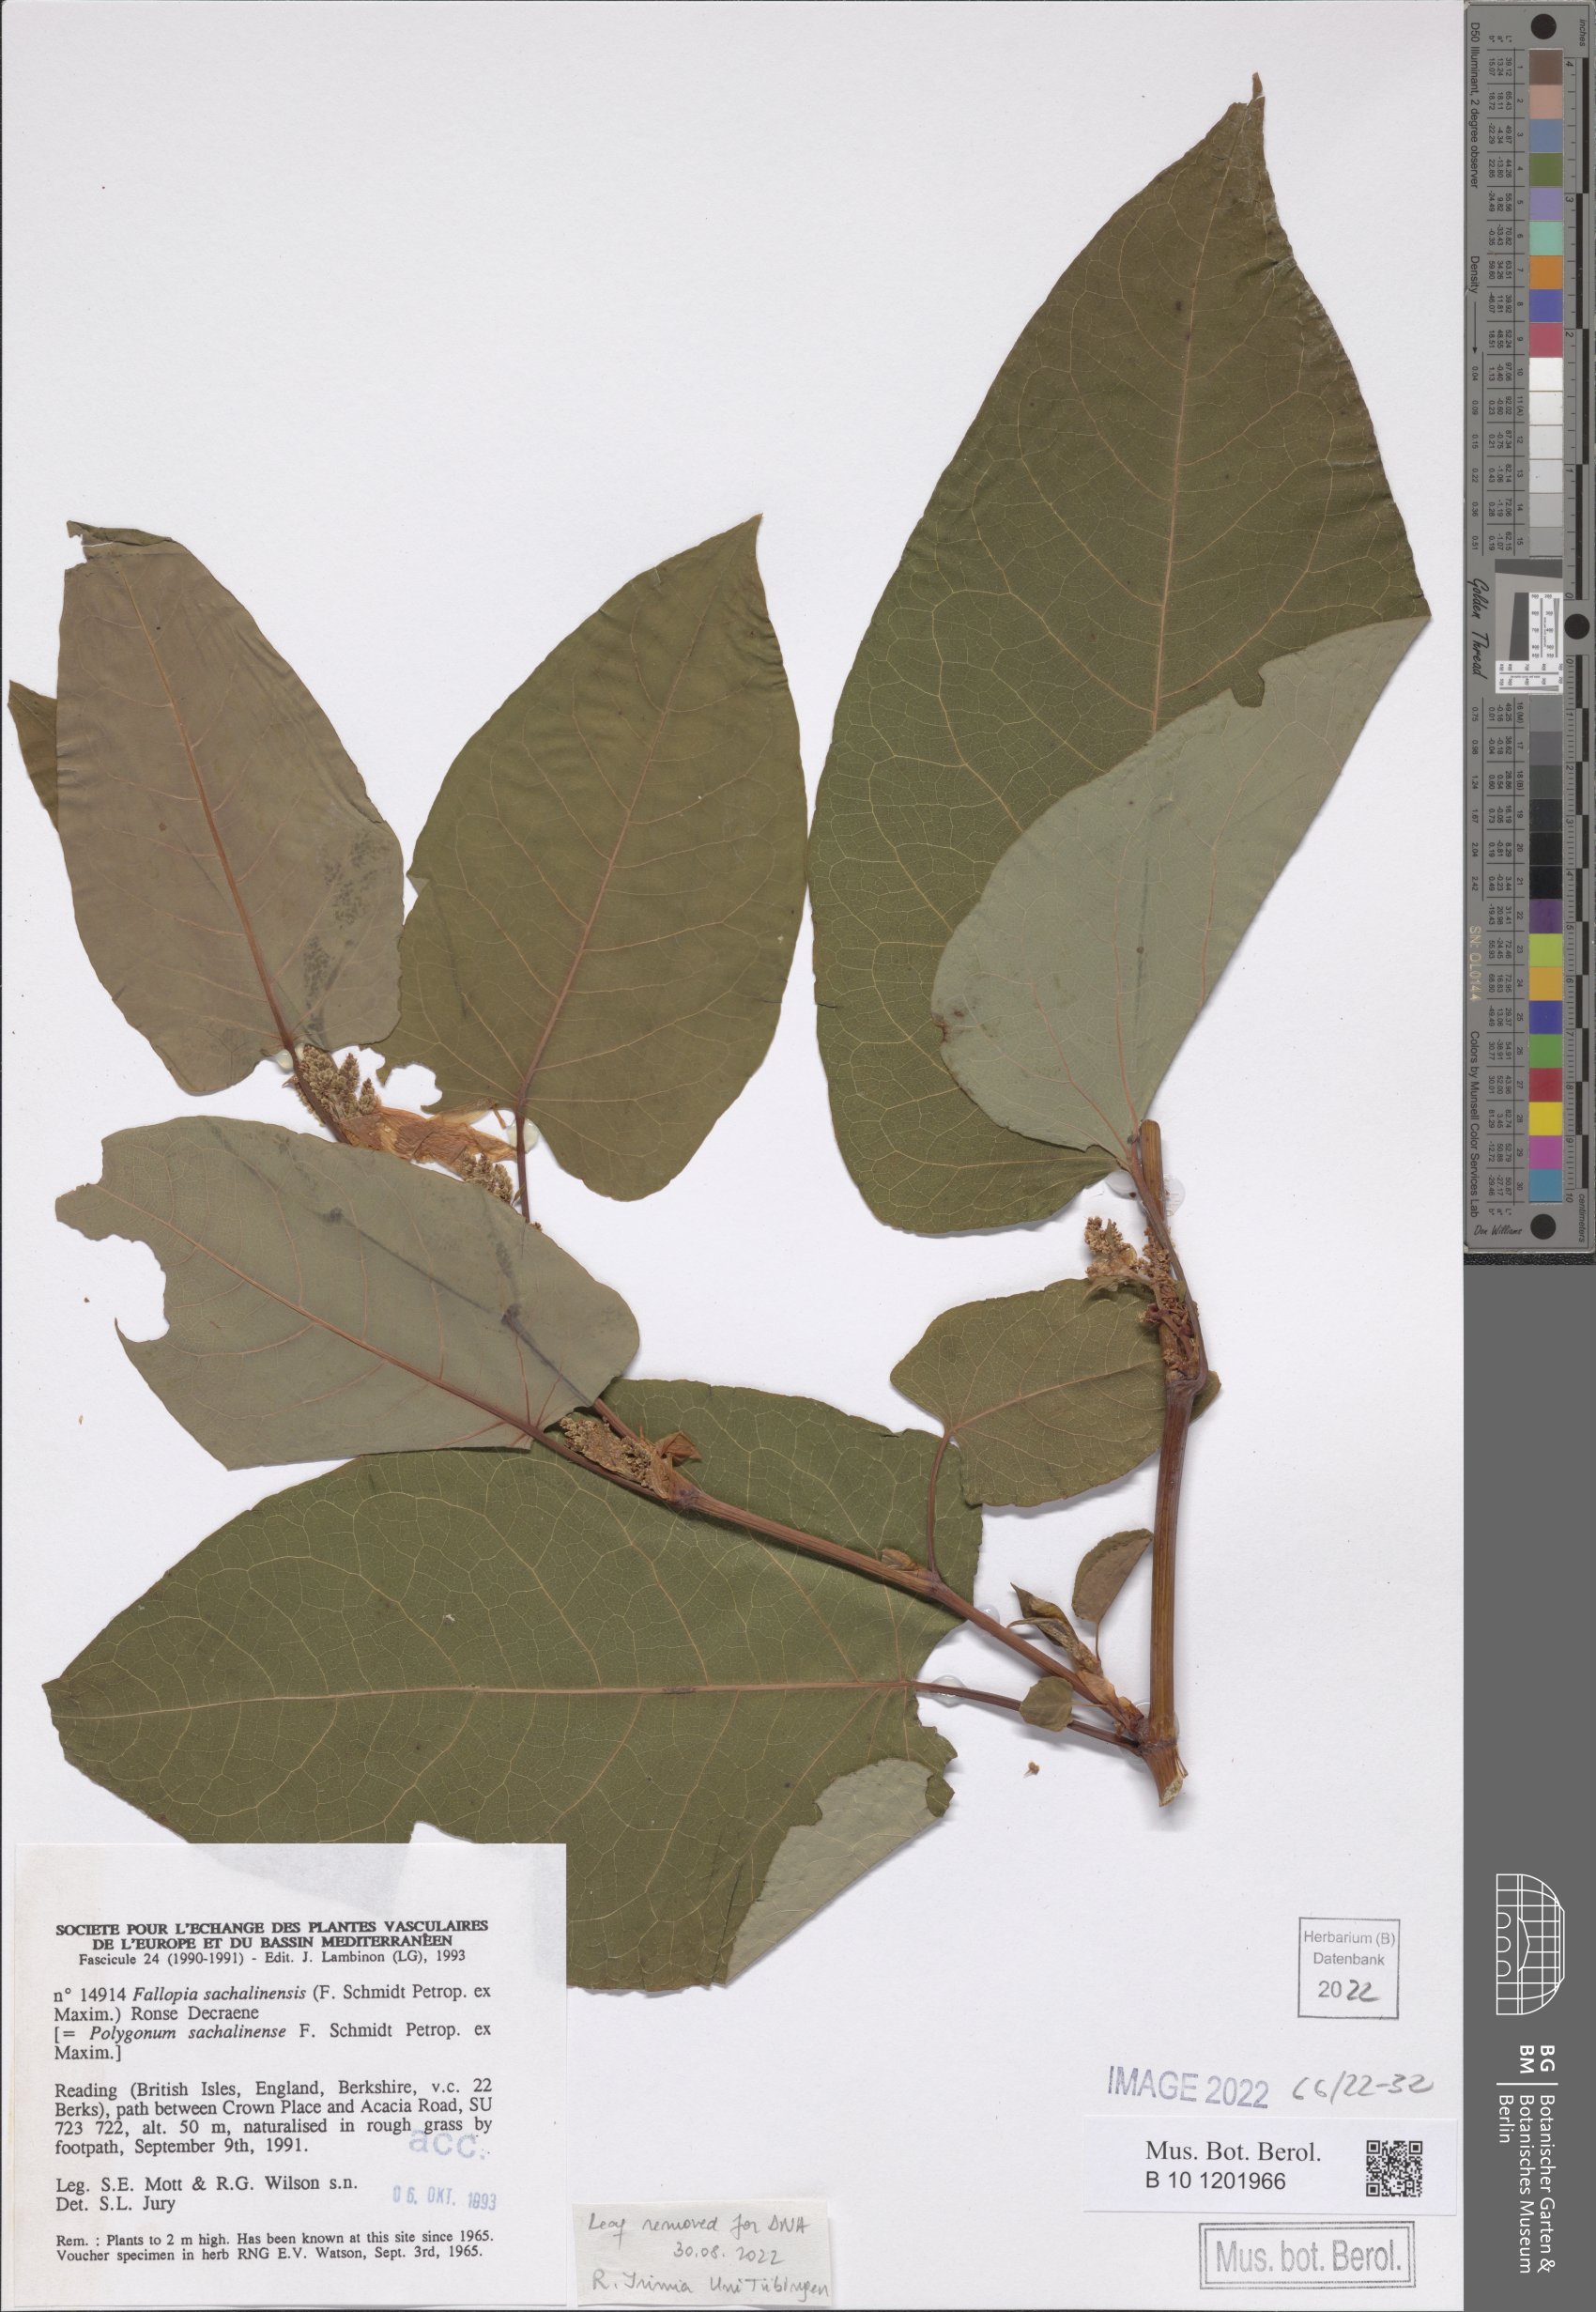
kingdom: Plantae
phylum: Tracheophyta
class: Magnoliopsida
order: Caryophyllales
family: Polygonaceae
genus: Reynoutria
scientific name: Reynoutria sachalinensis
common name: Giant knotweed
